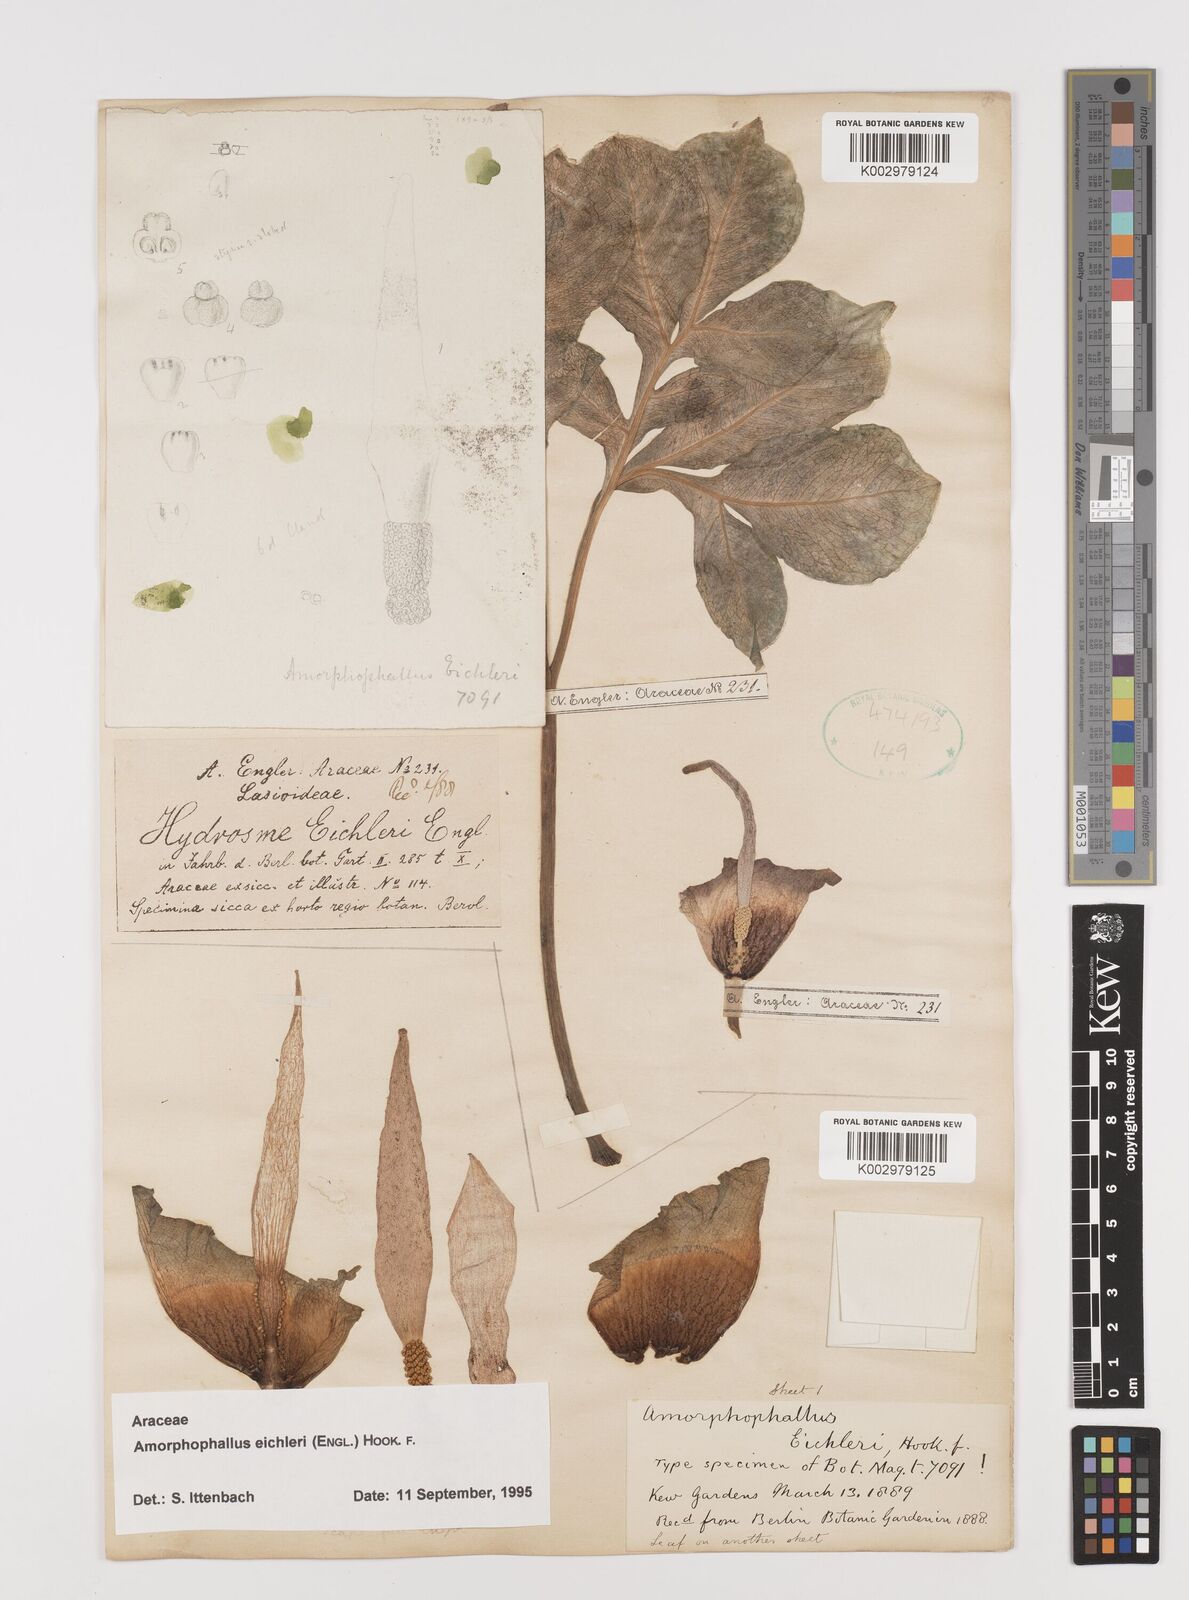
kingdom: Plantae
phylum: Tracheophyta
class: Liliopsida
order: Alismatales
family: Araceae
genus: Amorphophallus
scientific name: Amorphophallus eichleri
